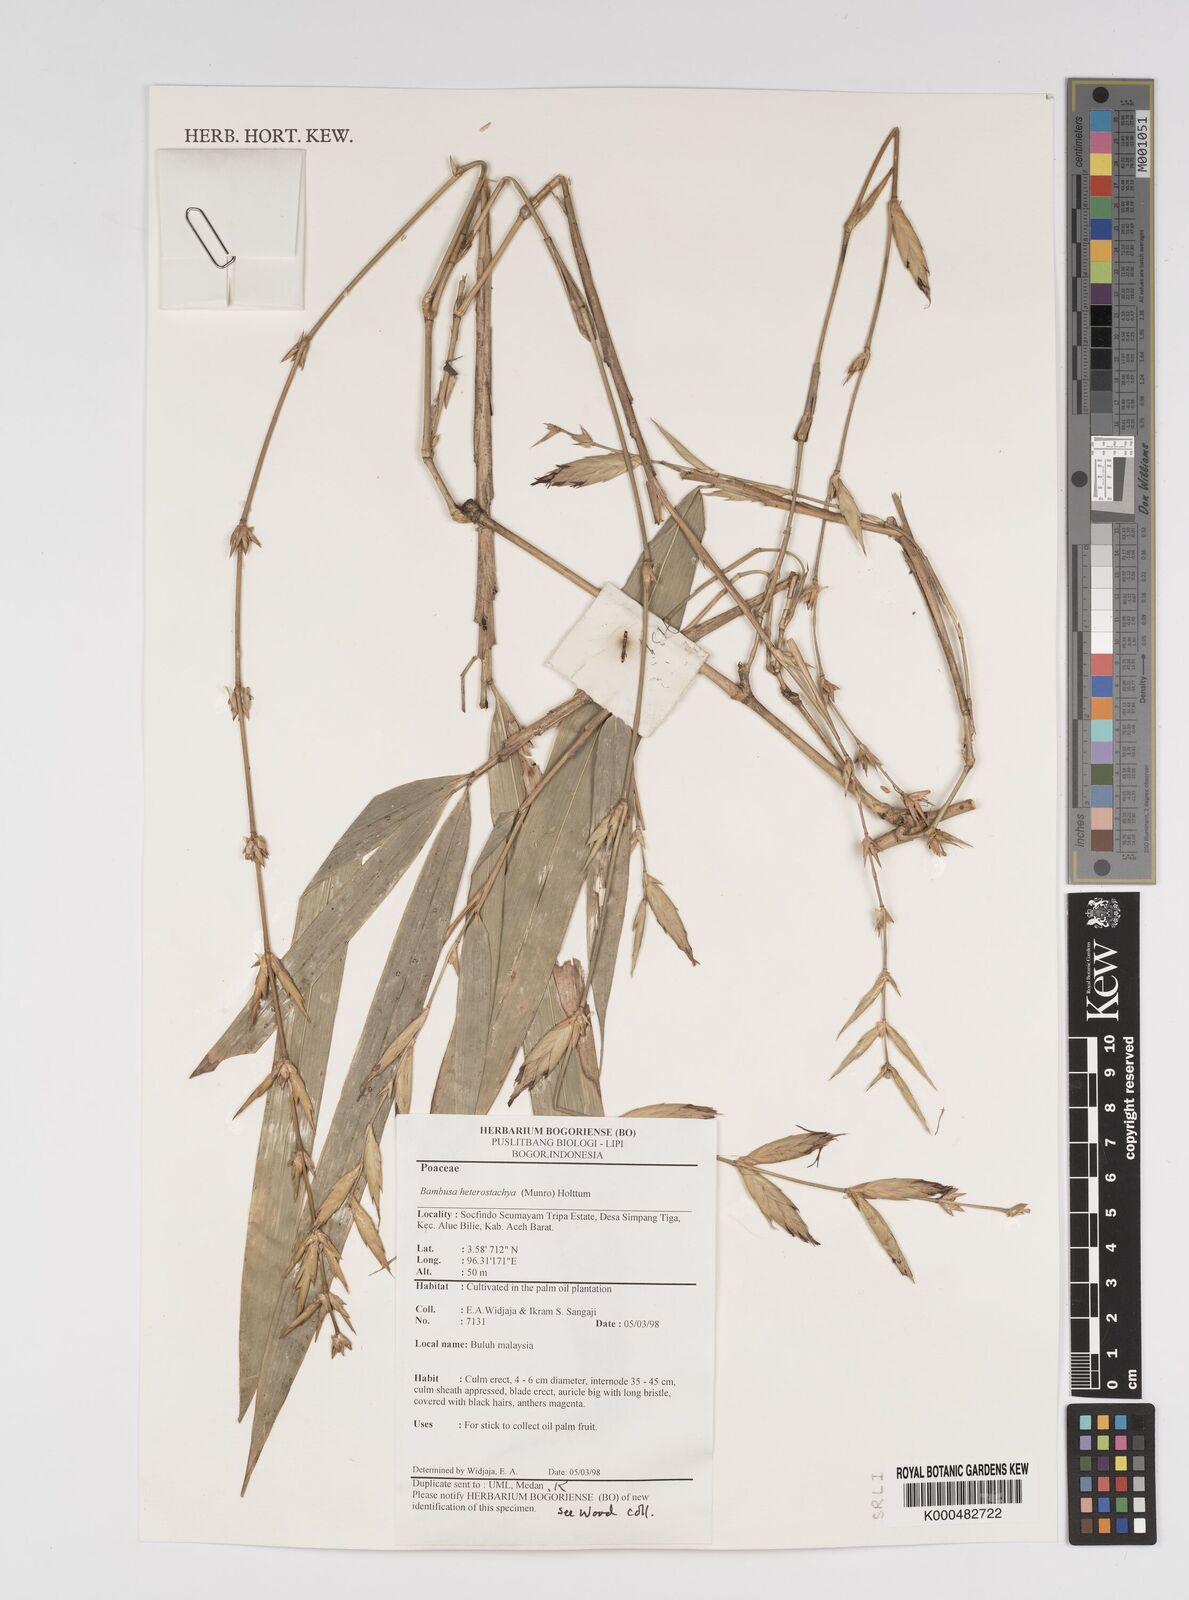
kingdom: Plantae
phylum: Tracheophyta
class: Liliopsida
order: Poales
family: Poaceae
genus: Bambusa
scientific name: Bambusa
